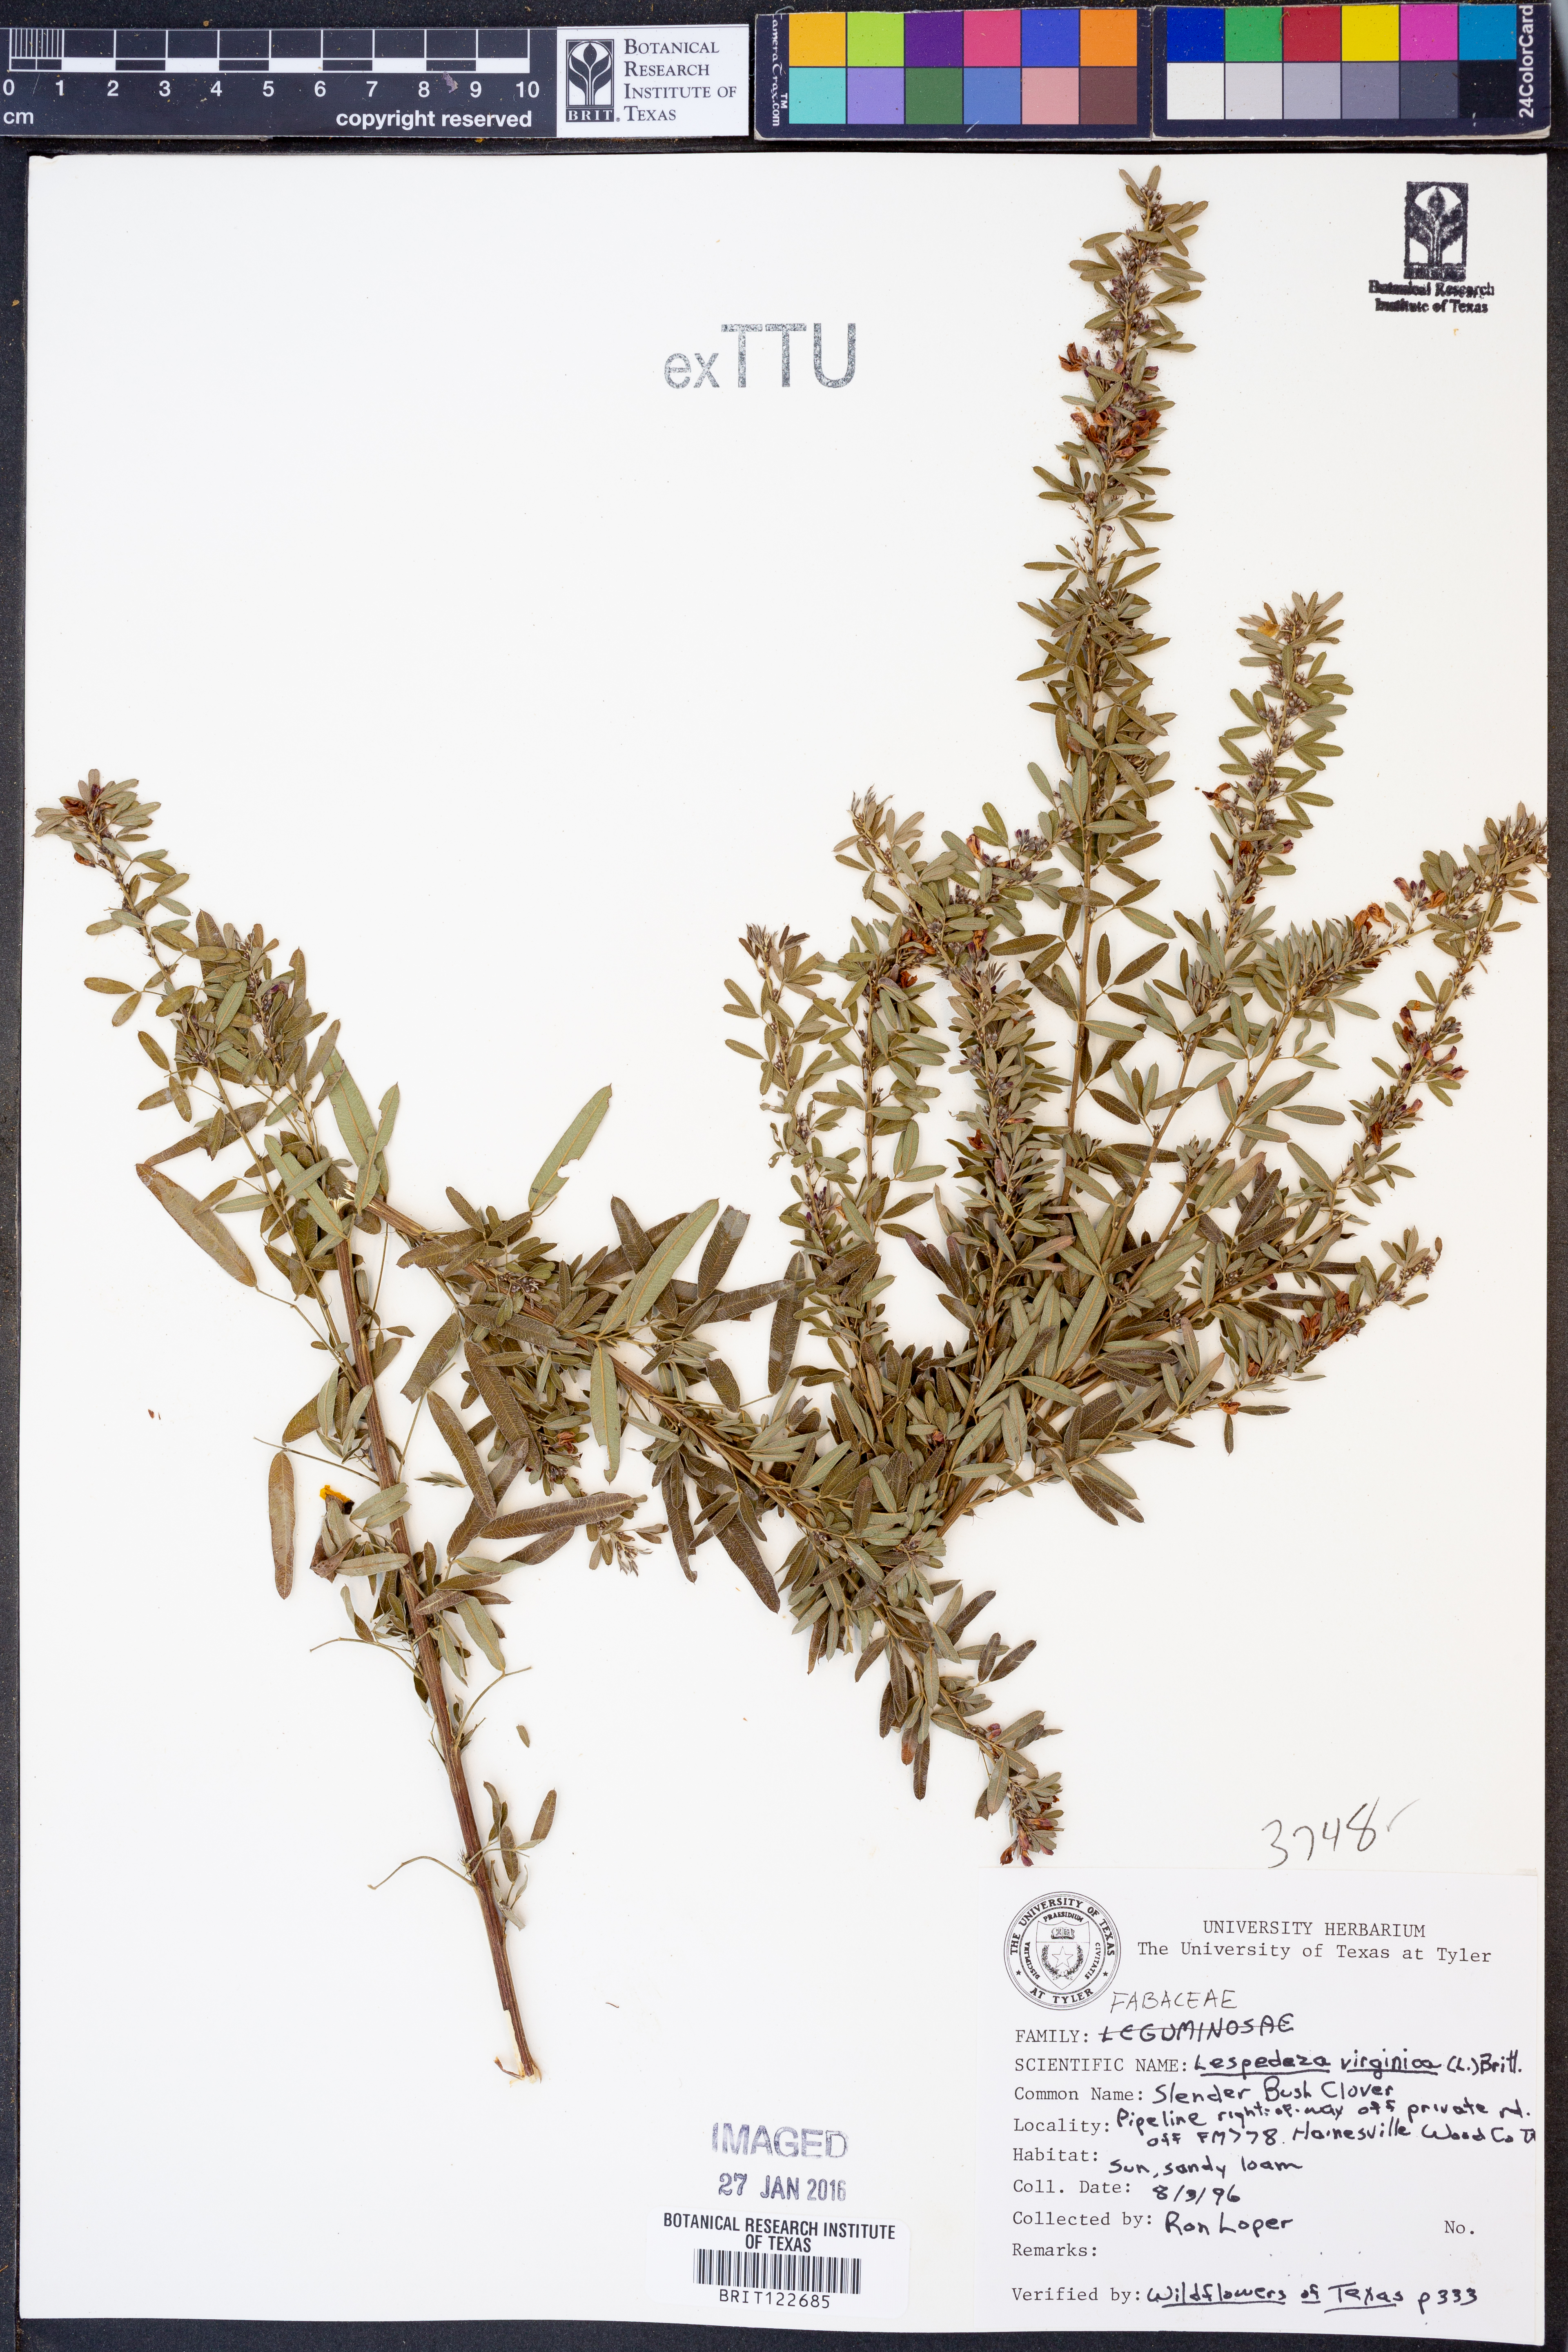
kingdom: Plantae
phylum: Tracheophyta
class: Magnoliopsida
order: Fabales
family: Fabaceae
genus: Lespedeza
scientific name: Lespedeza virginica
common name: Slender bush-clover
